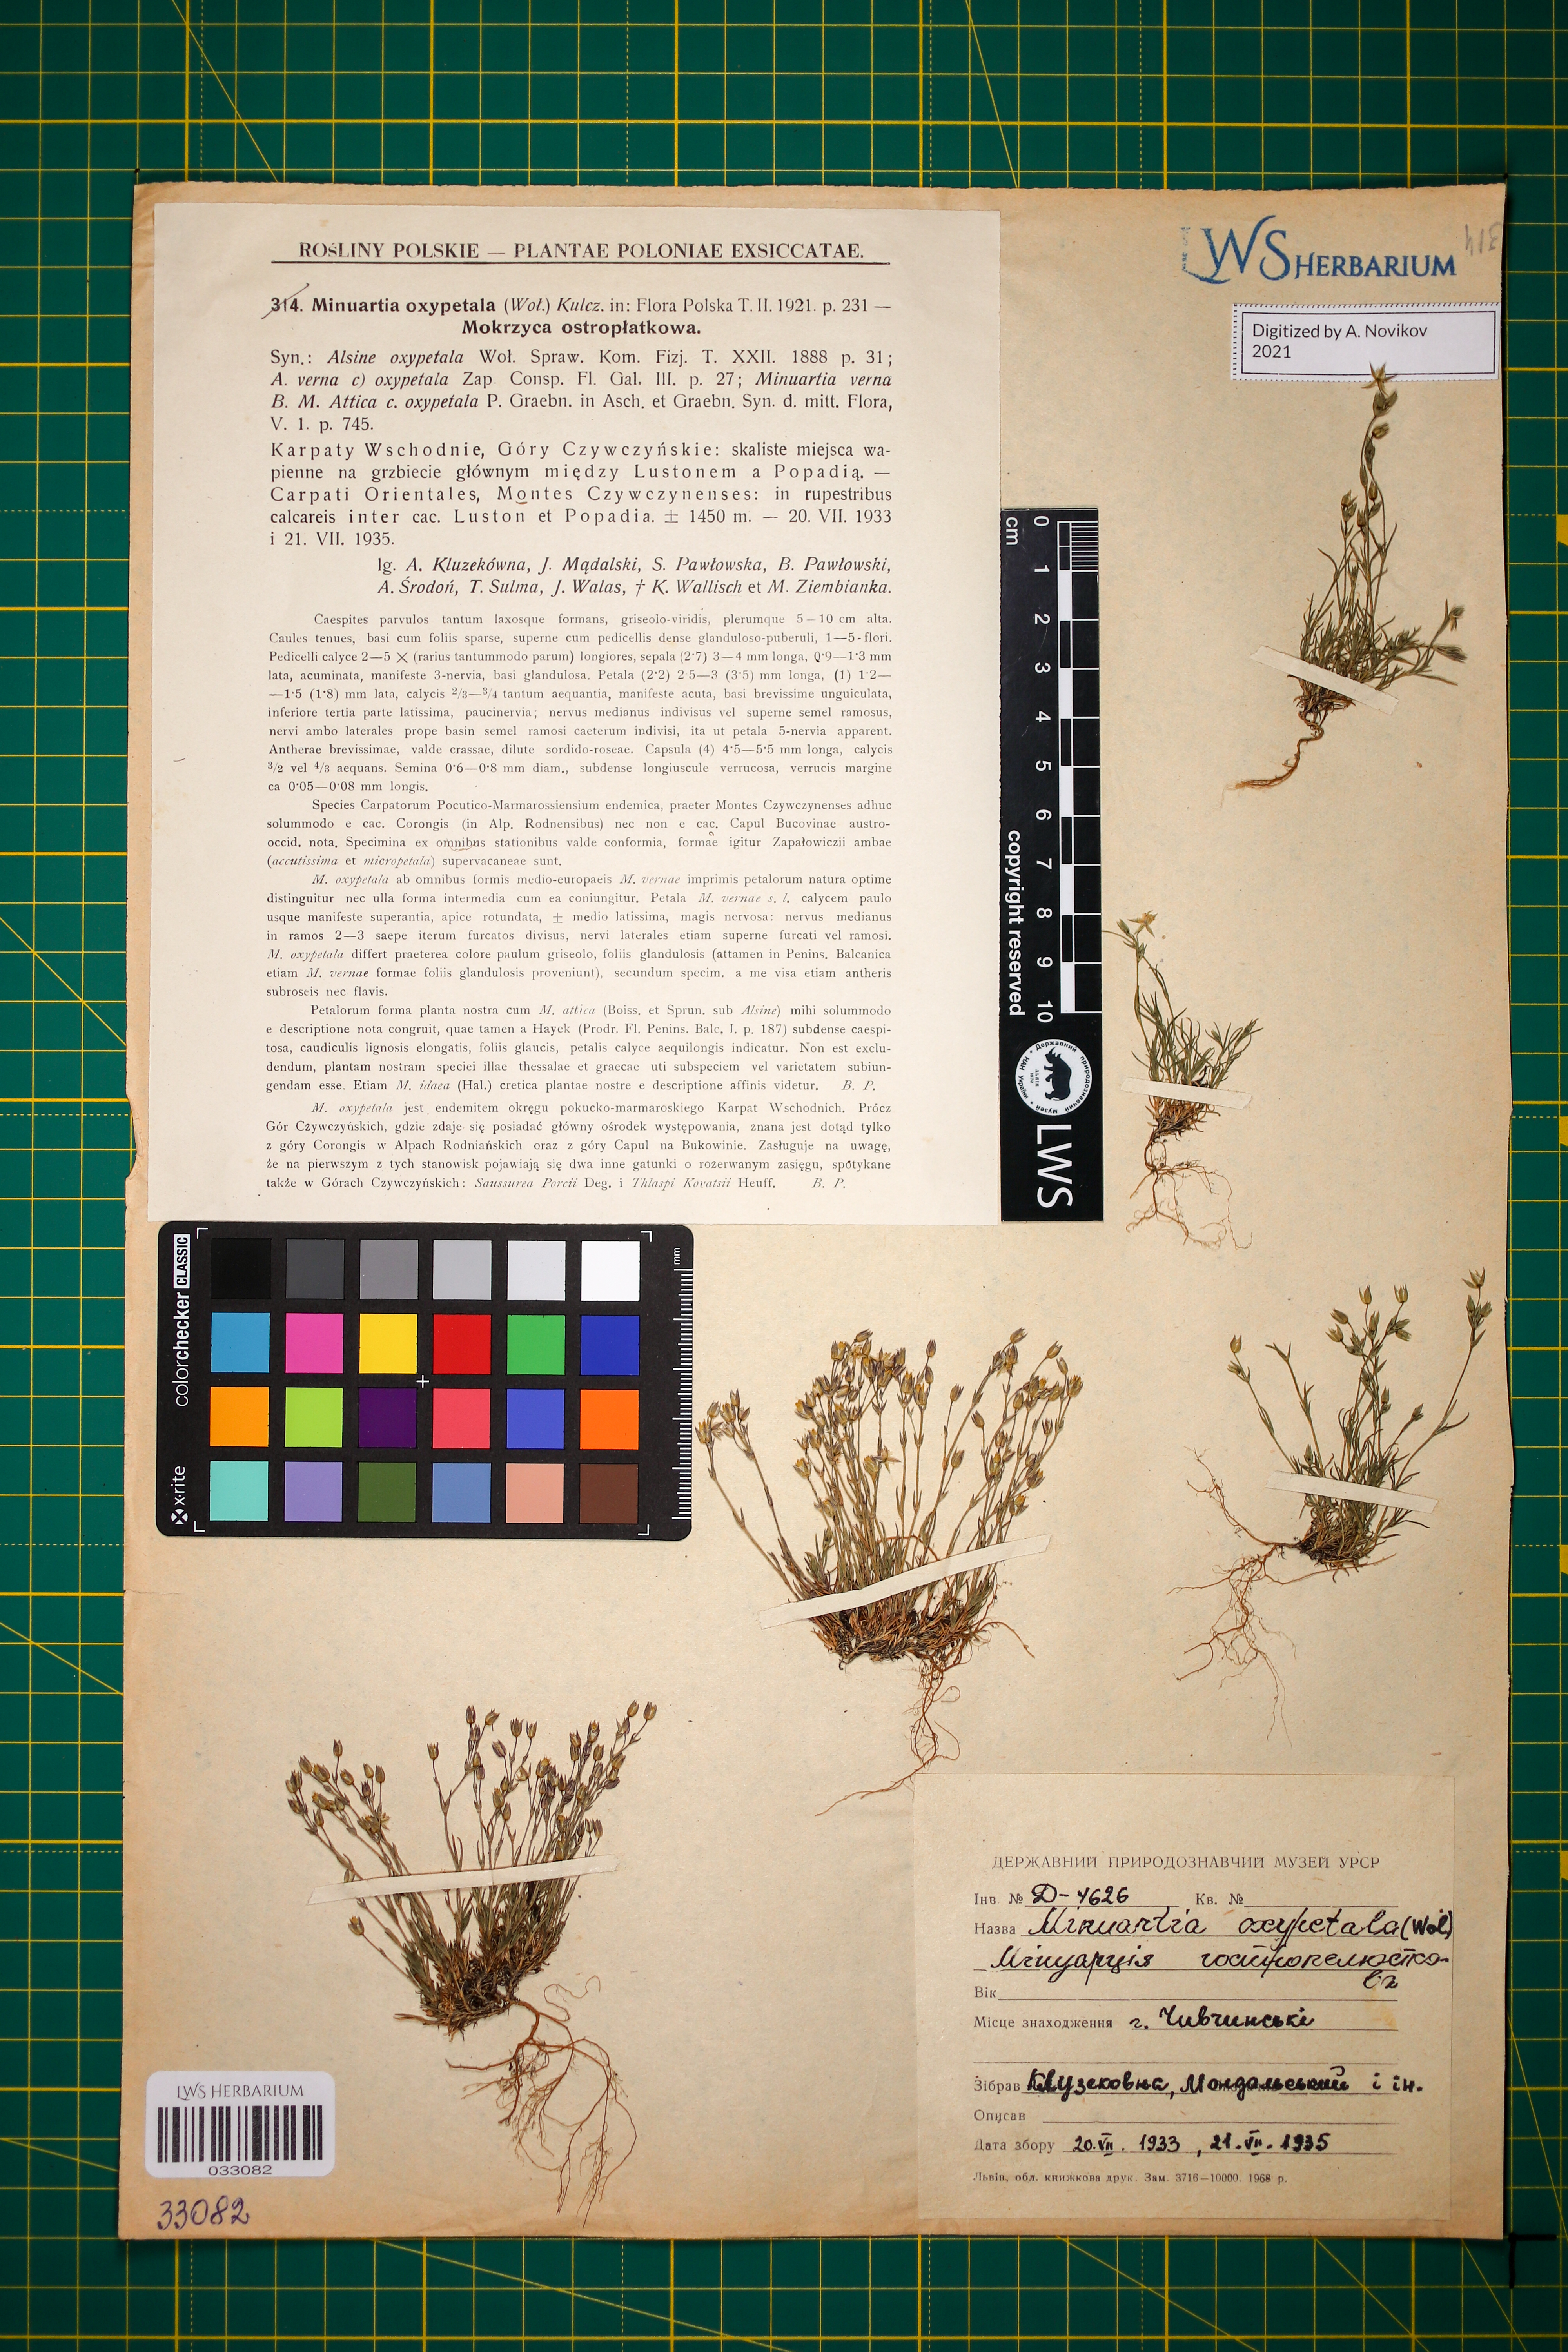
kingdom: Plantae
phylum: Tracheophyta
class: Magnoliopsida
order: Caryophyllales
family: Caryophyllaceae
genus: Sabulina
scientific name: Sabulina oxypetala
